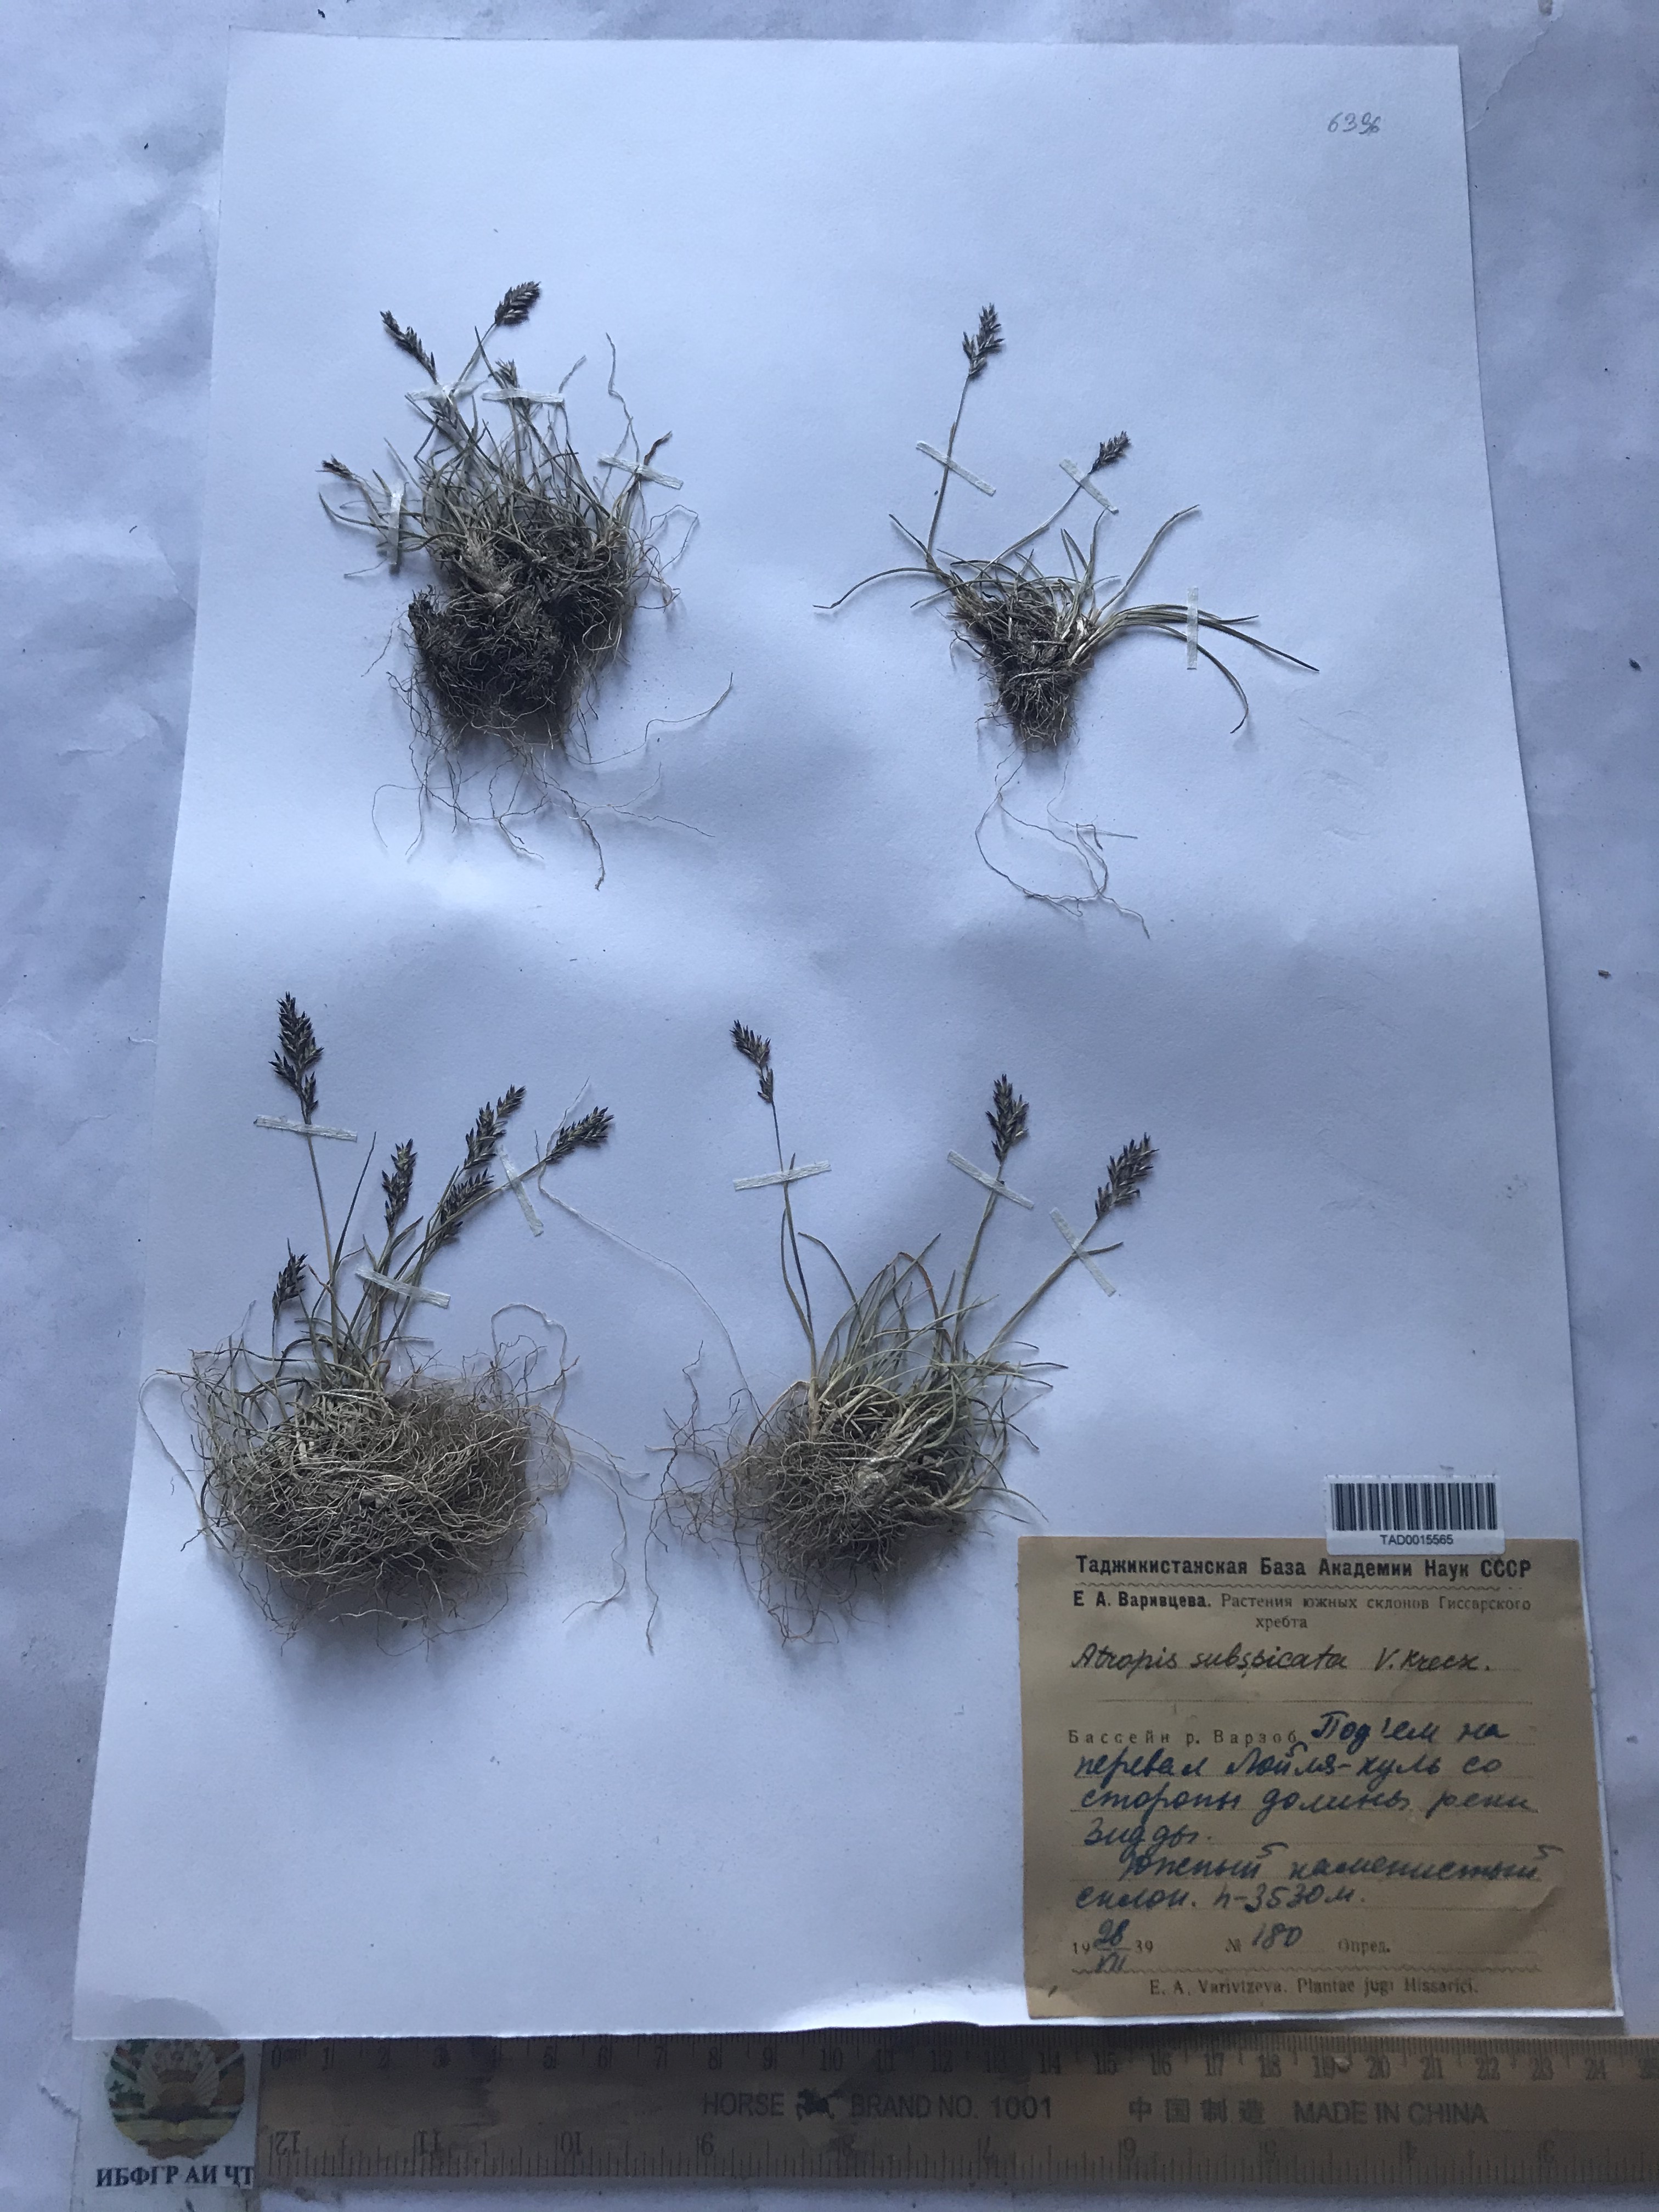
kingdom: Plantae
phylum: Tracheophyta
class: Liliopsida
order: Poales
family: Poaceae
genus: Puccinellia
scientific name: Puccinellia subspicata
